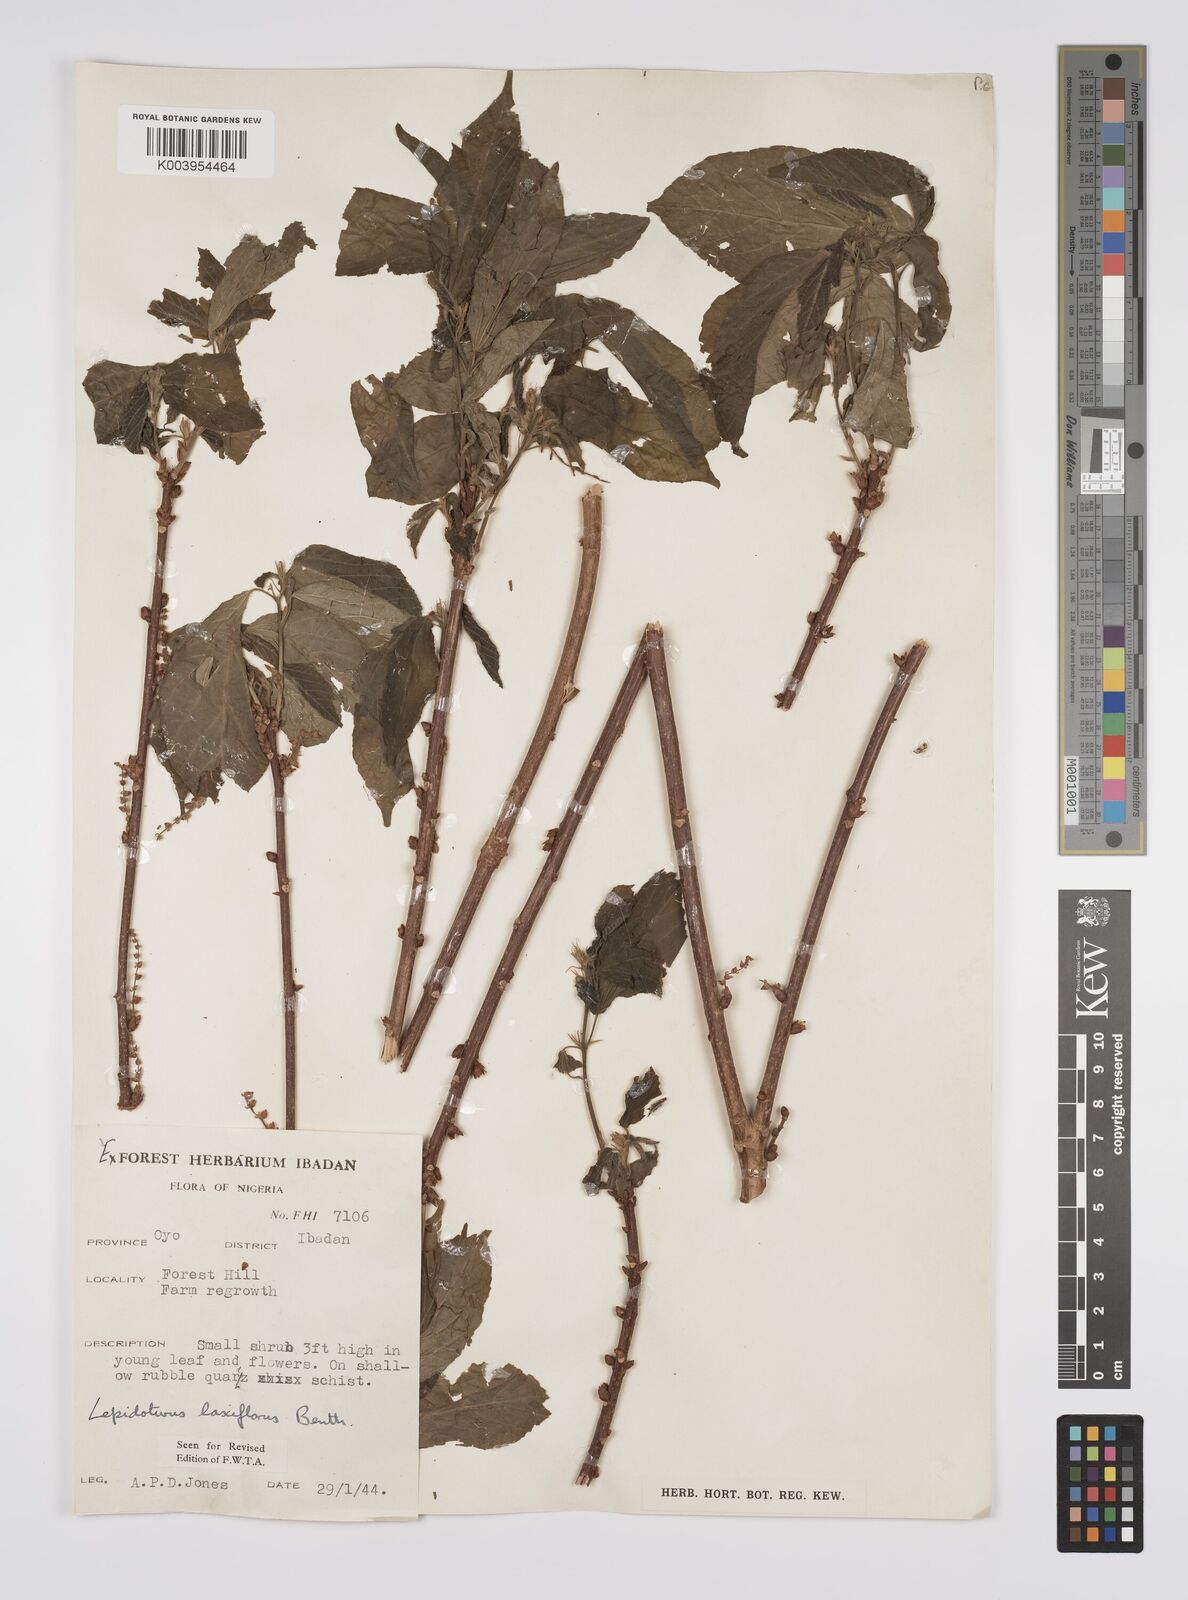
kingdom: Plantae
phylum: Tracheophyta
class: Magnoliopsida
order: Malpighiales
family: Euphorbiaceae
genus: Alchornea
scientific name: Alchornea laxiflora
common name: Lowveld bead-string
